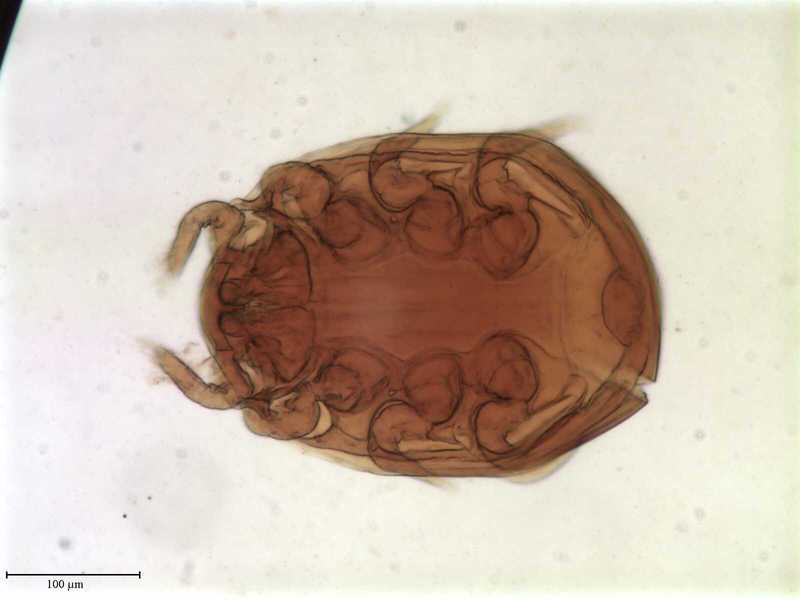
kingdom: Animalia
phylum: Arthropoda
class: Arachnida
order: Mesostigmata
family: Uropodidae
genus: Uropoda
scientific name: Uropoda
